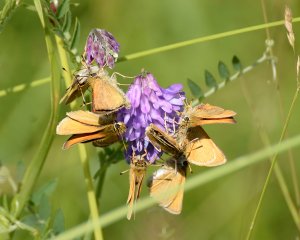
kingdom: Animalia
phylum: Arthropoda
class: Insecta
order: Lepidoptera
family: Hesperiidae
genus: Thymelicus
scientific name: Thymelicus lineola
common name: European Skipper
